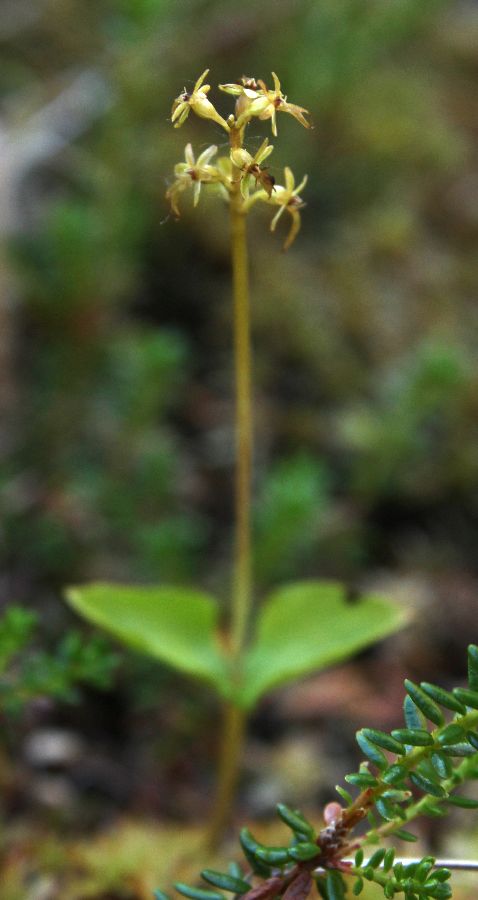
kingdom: Plantae
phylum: Tracheophyta
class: Liliopsida
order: Asparagales
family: Orchidaceae
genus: Neottia
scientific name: Neottia cordata
